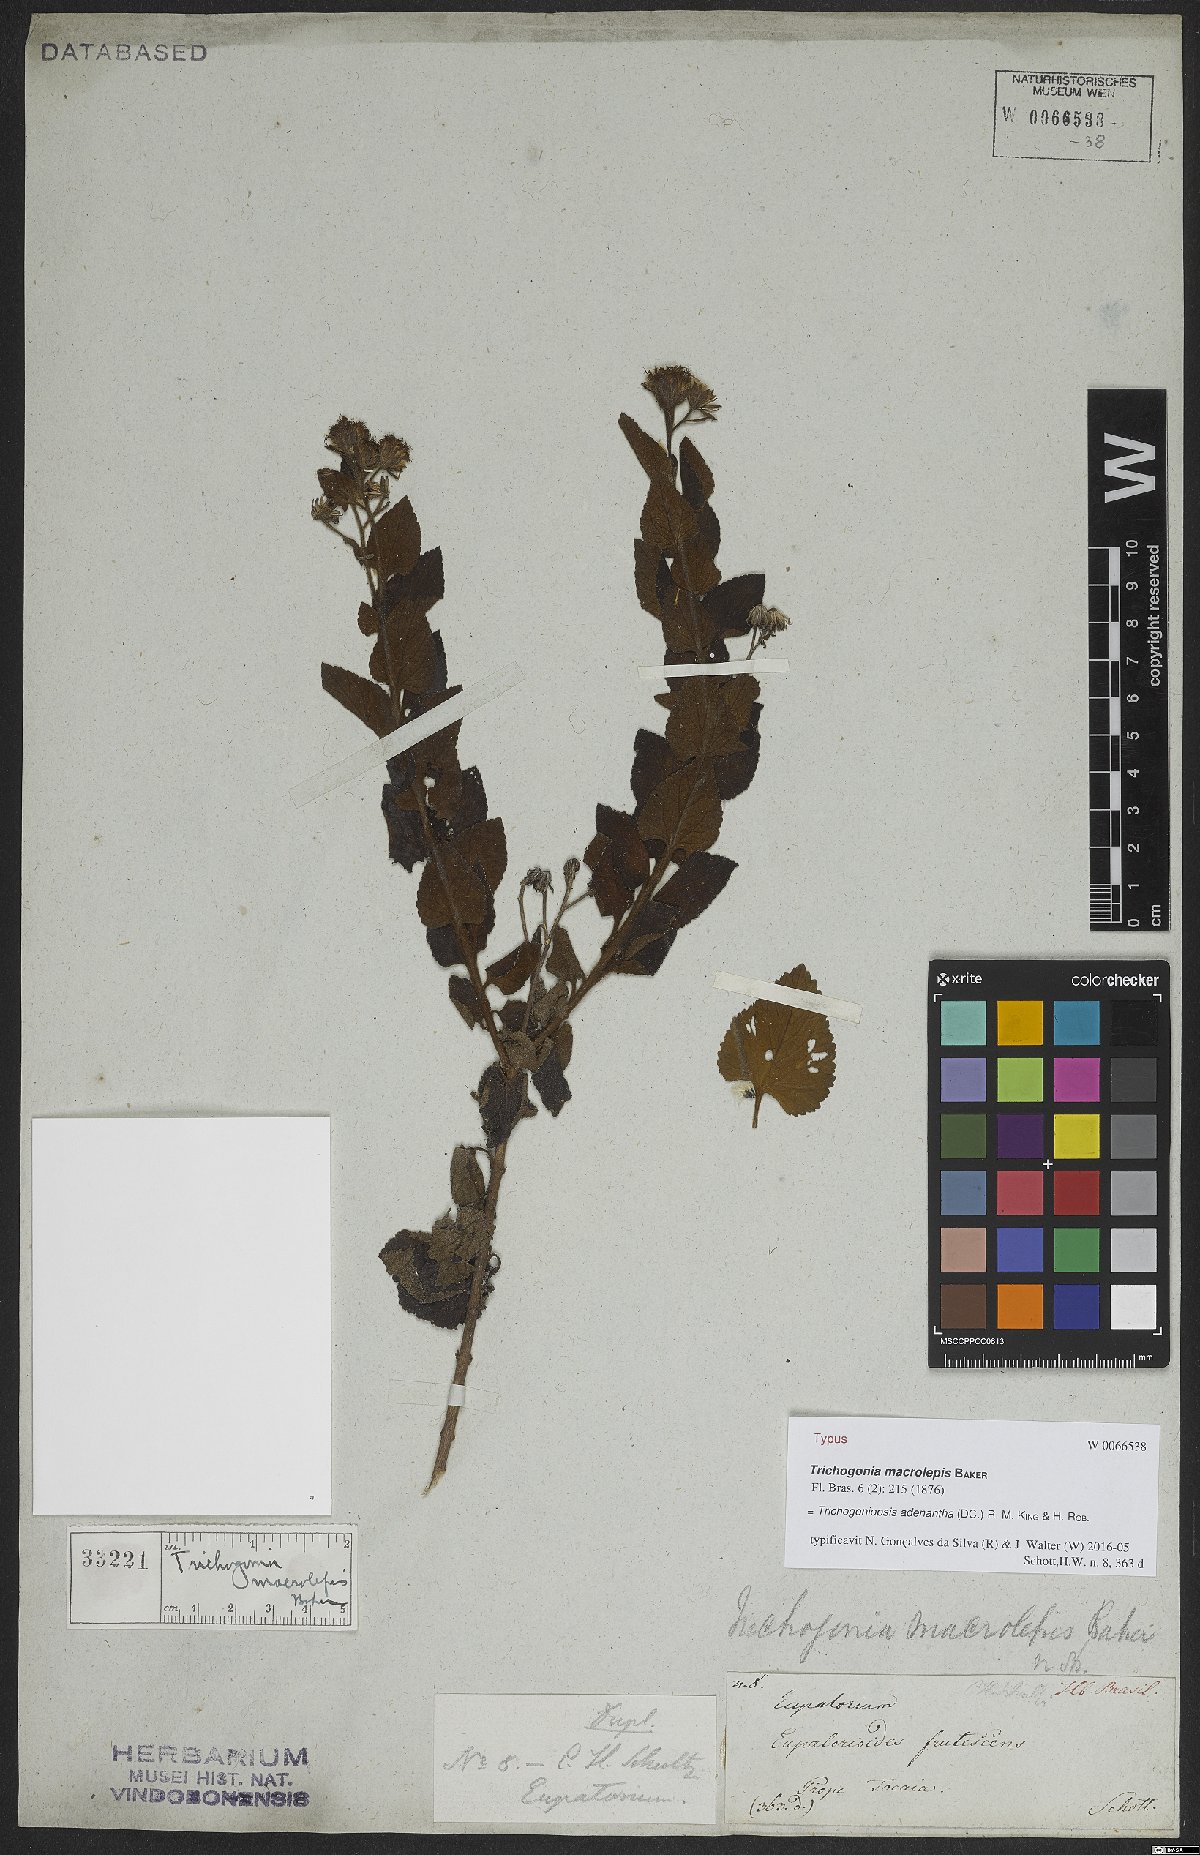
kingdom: Plantae
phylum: Tracheophyta
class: Magnoliopsida
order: Asterales
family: Asteraceae
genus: Trichogoniopsis
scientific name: Trichogoniopsis adenantha
